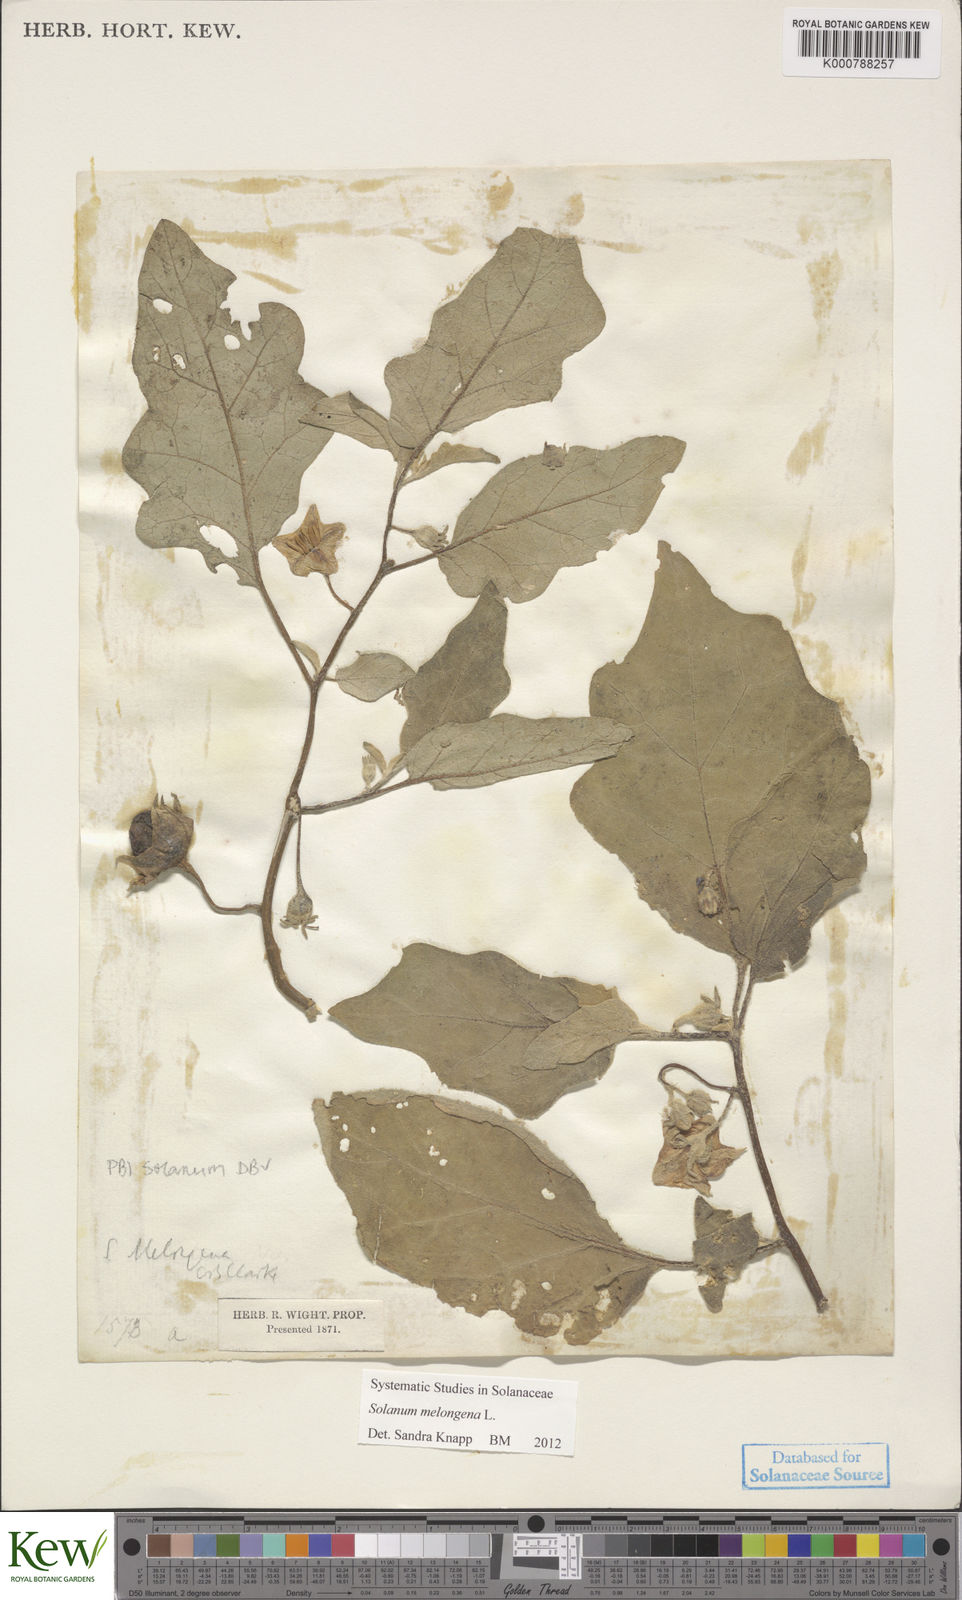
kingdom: Plantae
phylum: Tracheophyta
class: Magnoliopsida
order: Solanales
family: Solanaceae
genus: Solanum
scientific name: Solanum melongena
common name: Eggplant
